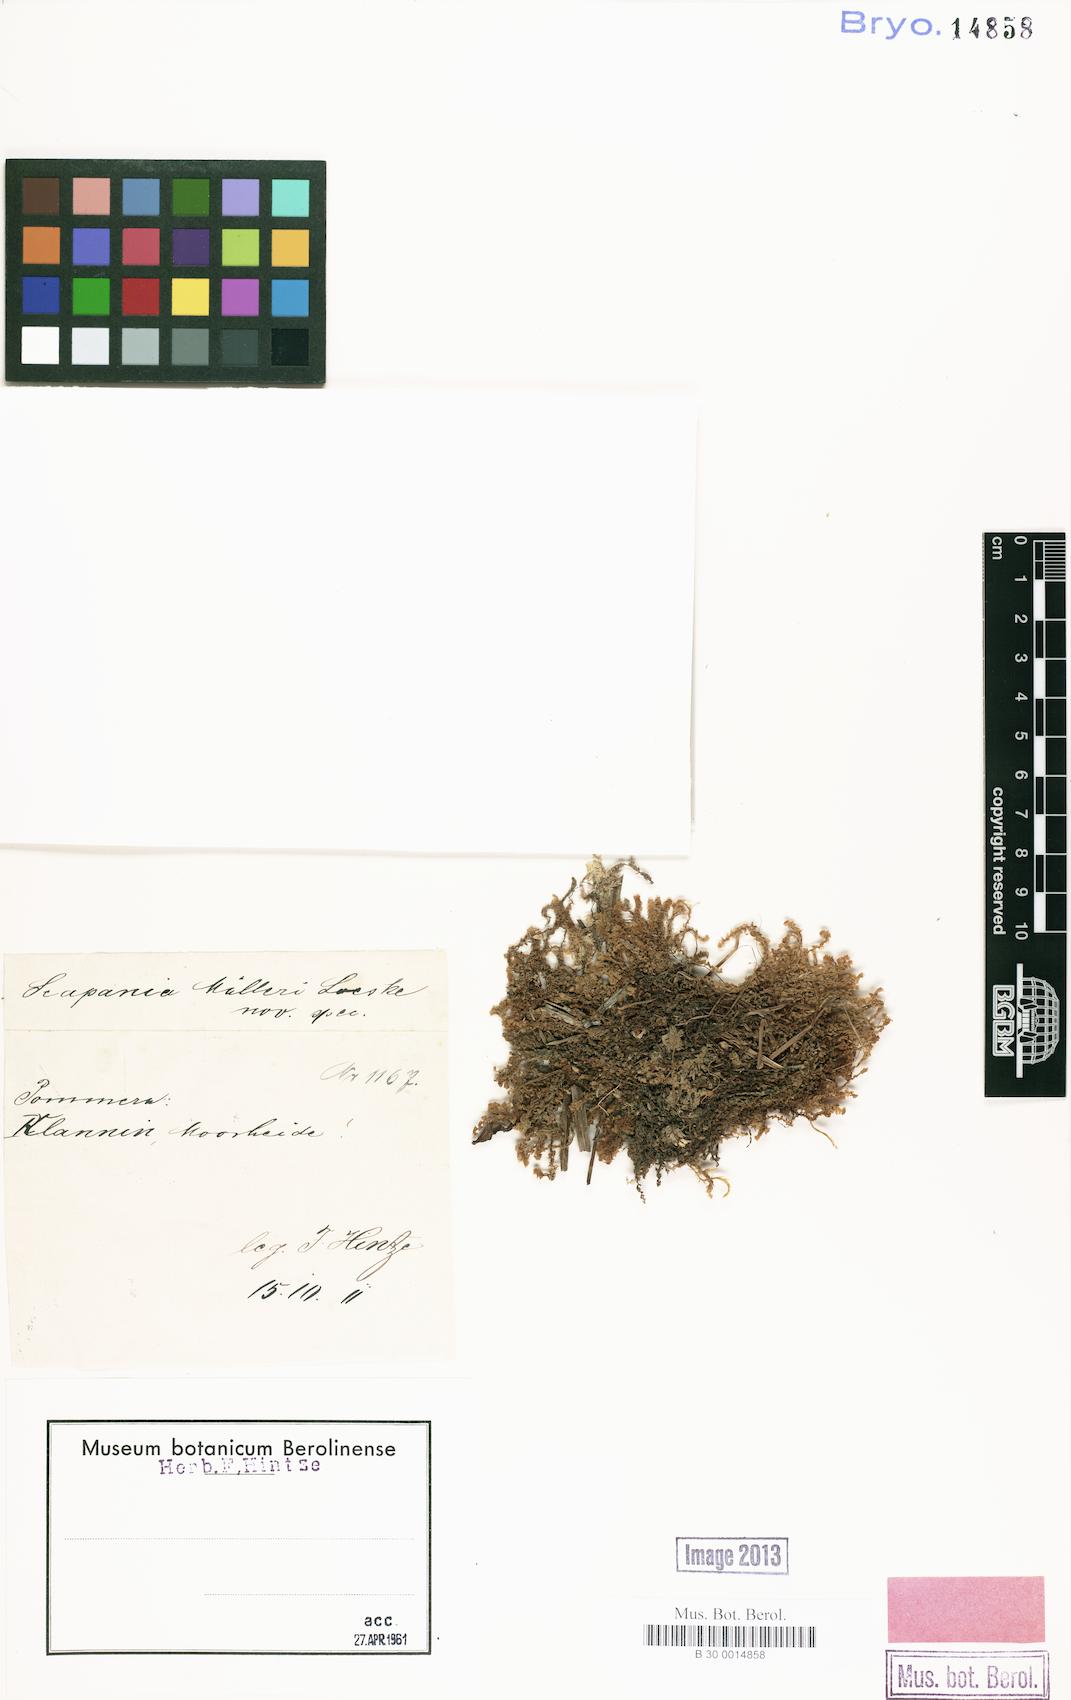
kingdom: Plantae
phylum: Marchantiophyta
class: Jungermanniopsida
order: Jungermanniales
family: Scapaniaceae
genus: Scapania
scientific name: Scapania
